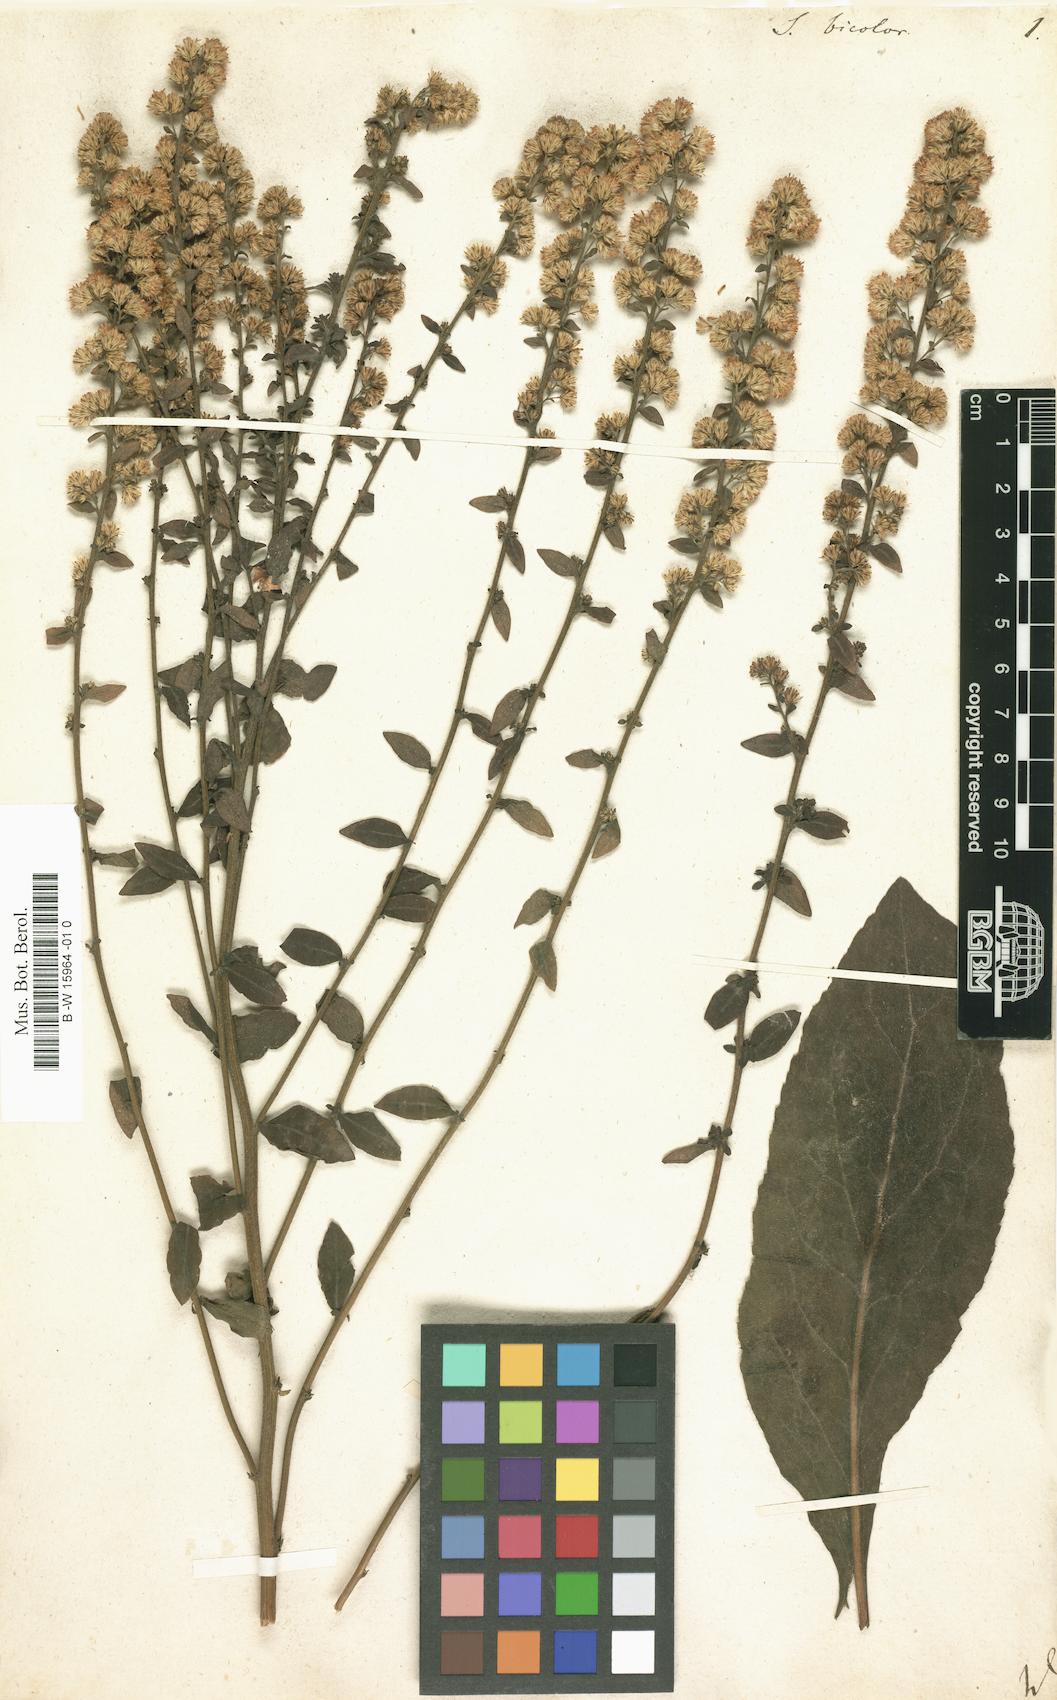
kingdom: Plantae
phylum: Tracheophyta
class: Magnoliopsida
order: Asterales
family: Asteraceae
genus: Solidago
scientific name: Solidago bicolor
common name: Silverrod
